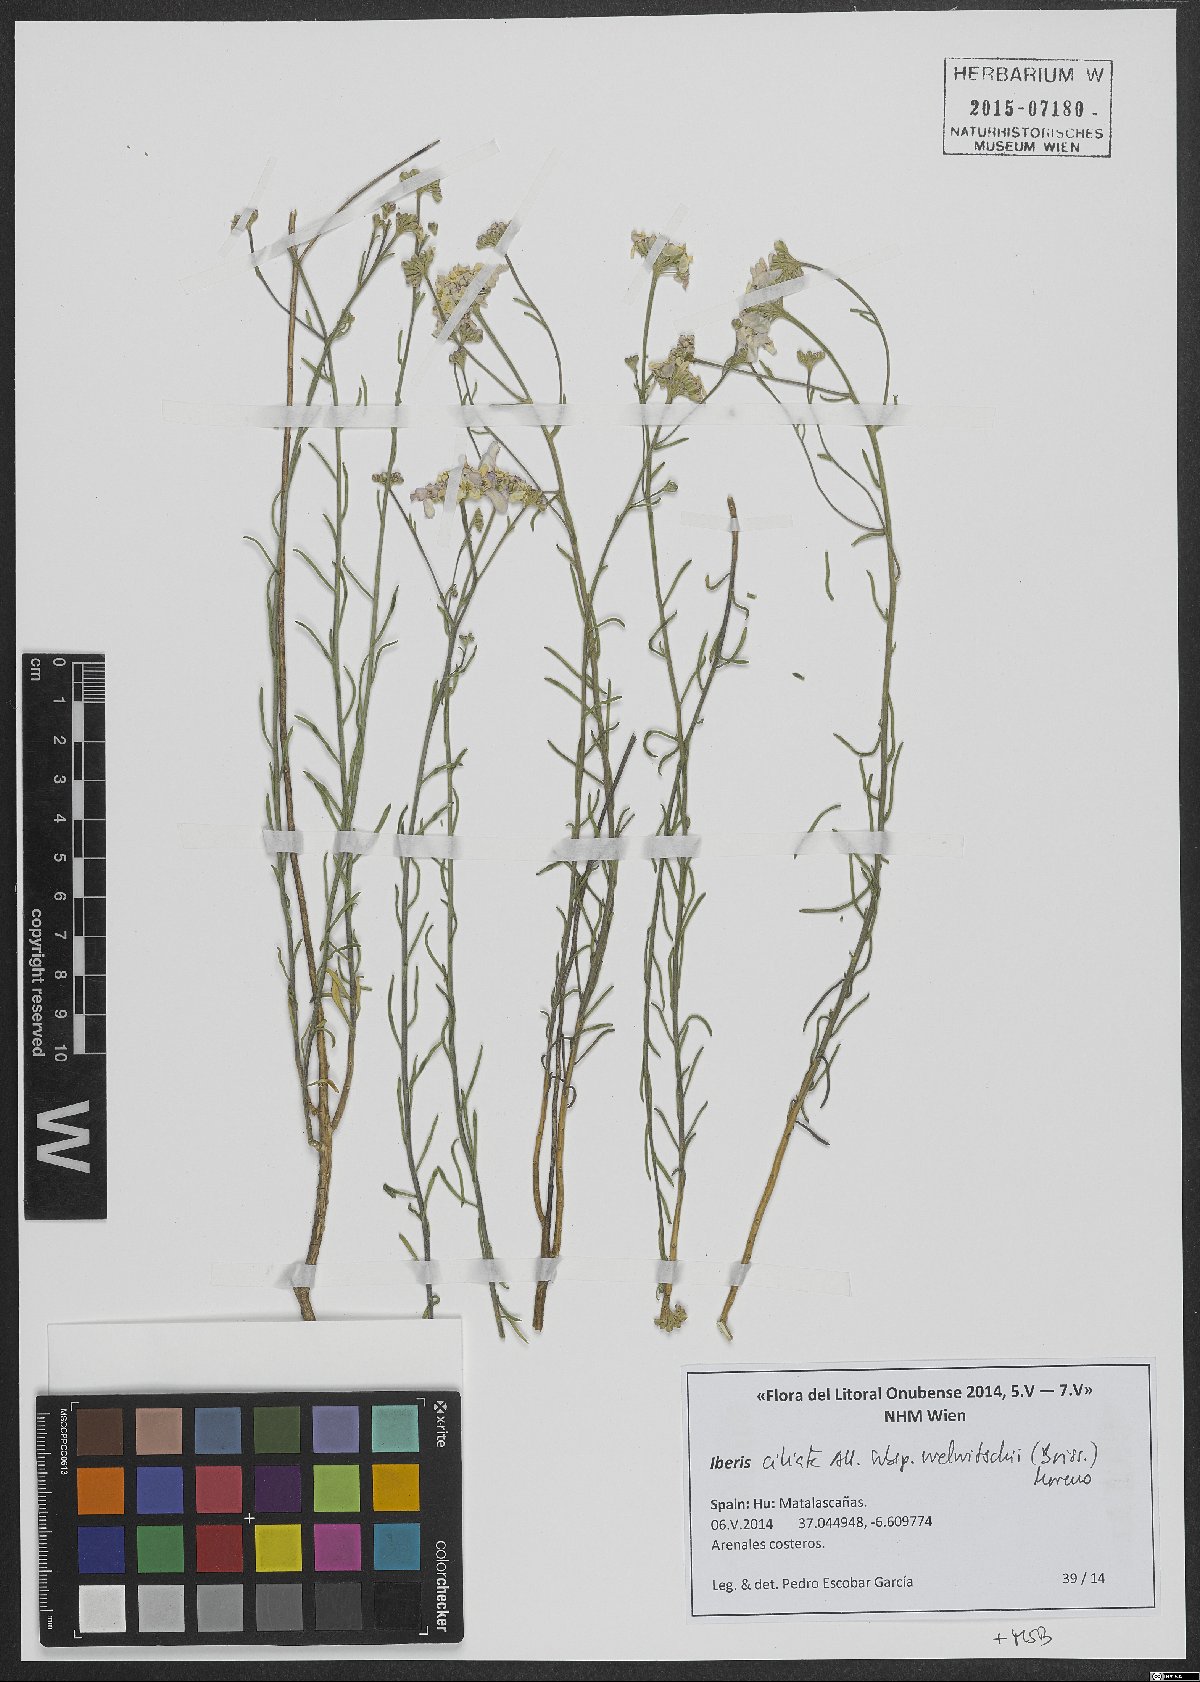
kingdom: Plantae
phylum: Tracheophyta
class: Magnoliopsida
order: Brassicales
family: Brassicaceae
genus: Iberis
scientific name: Iberis ciliata
